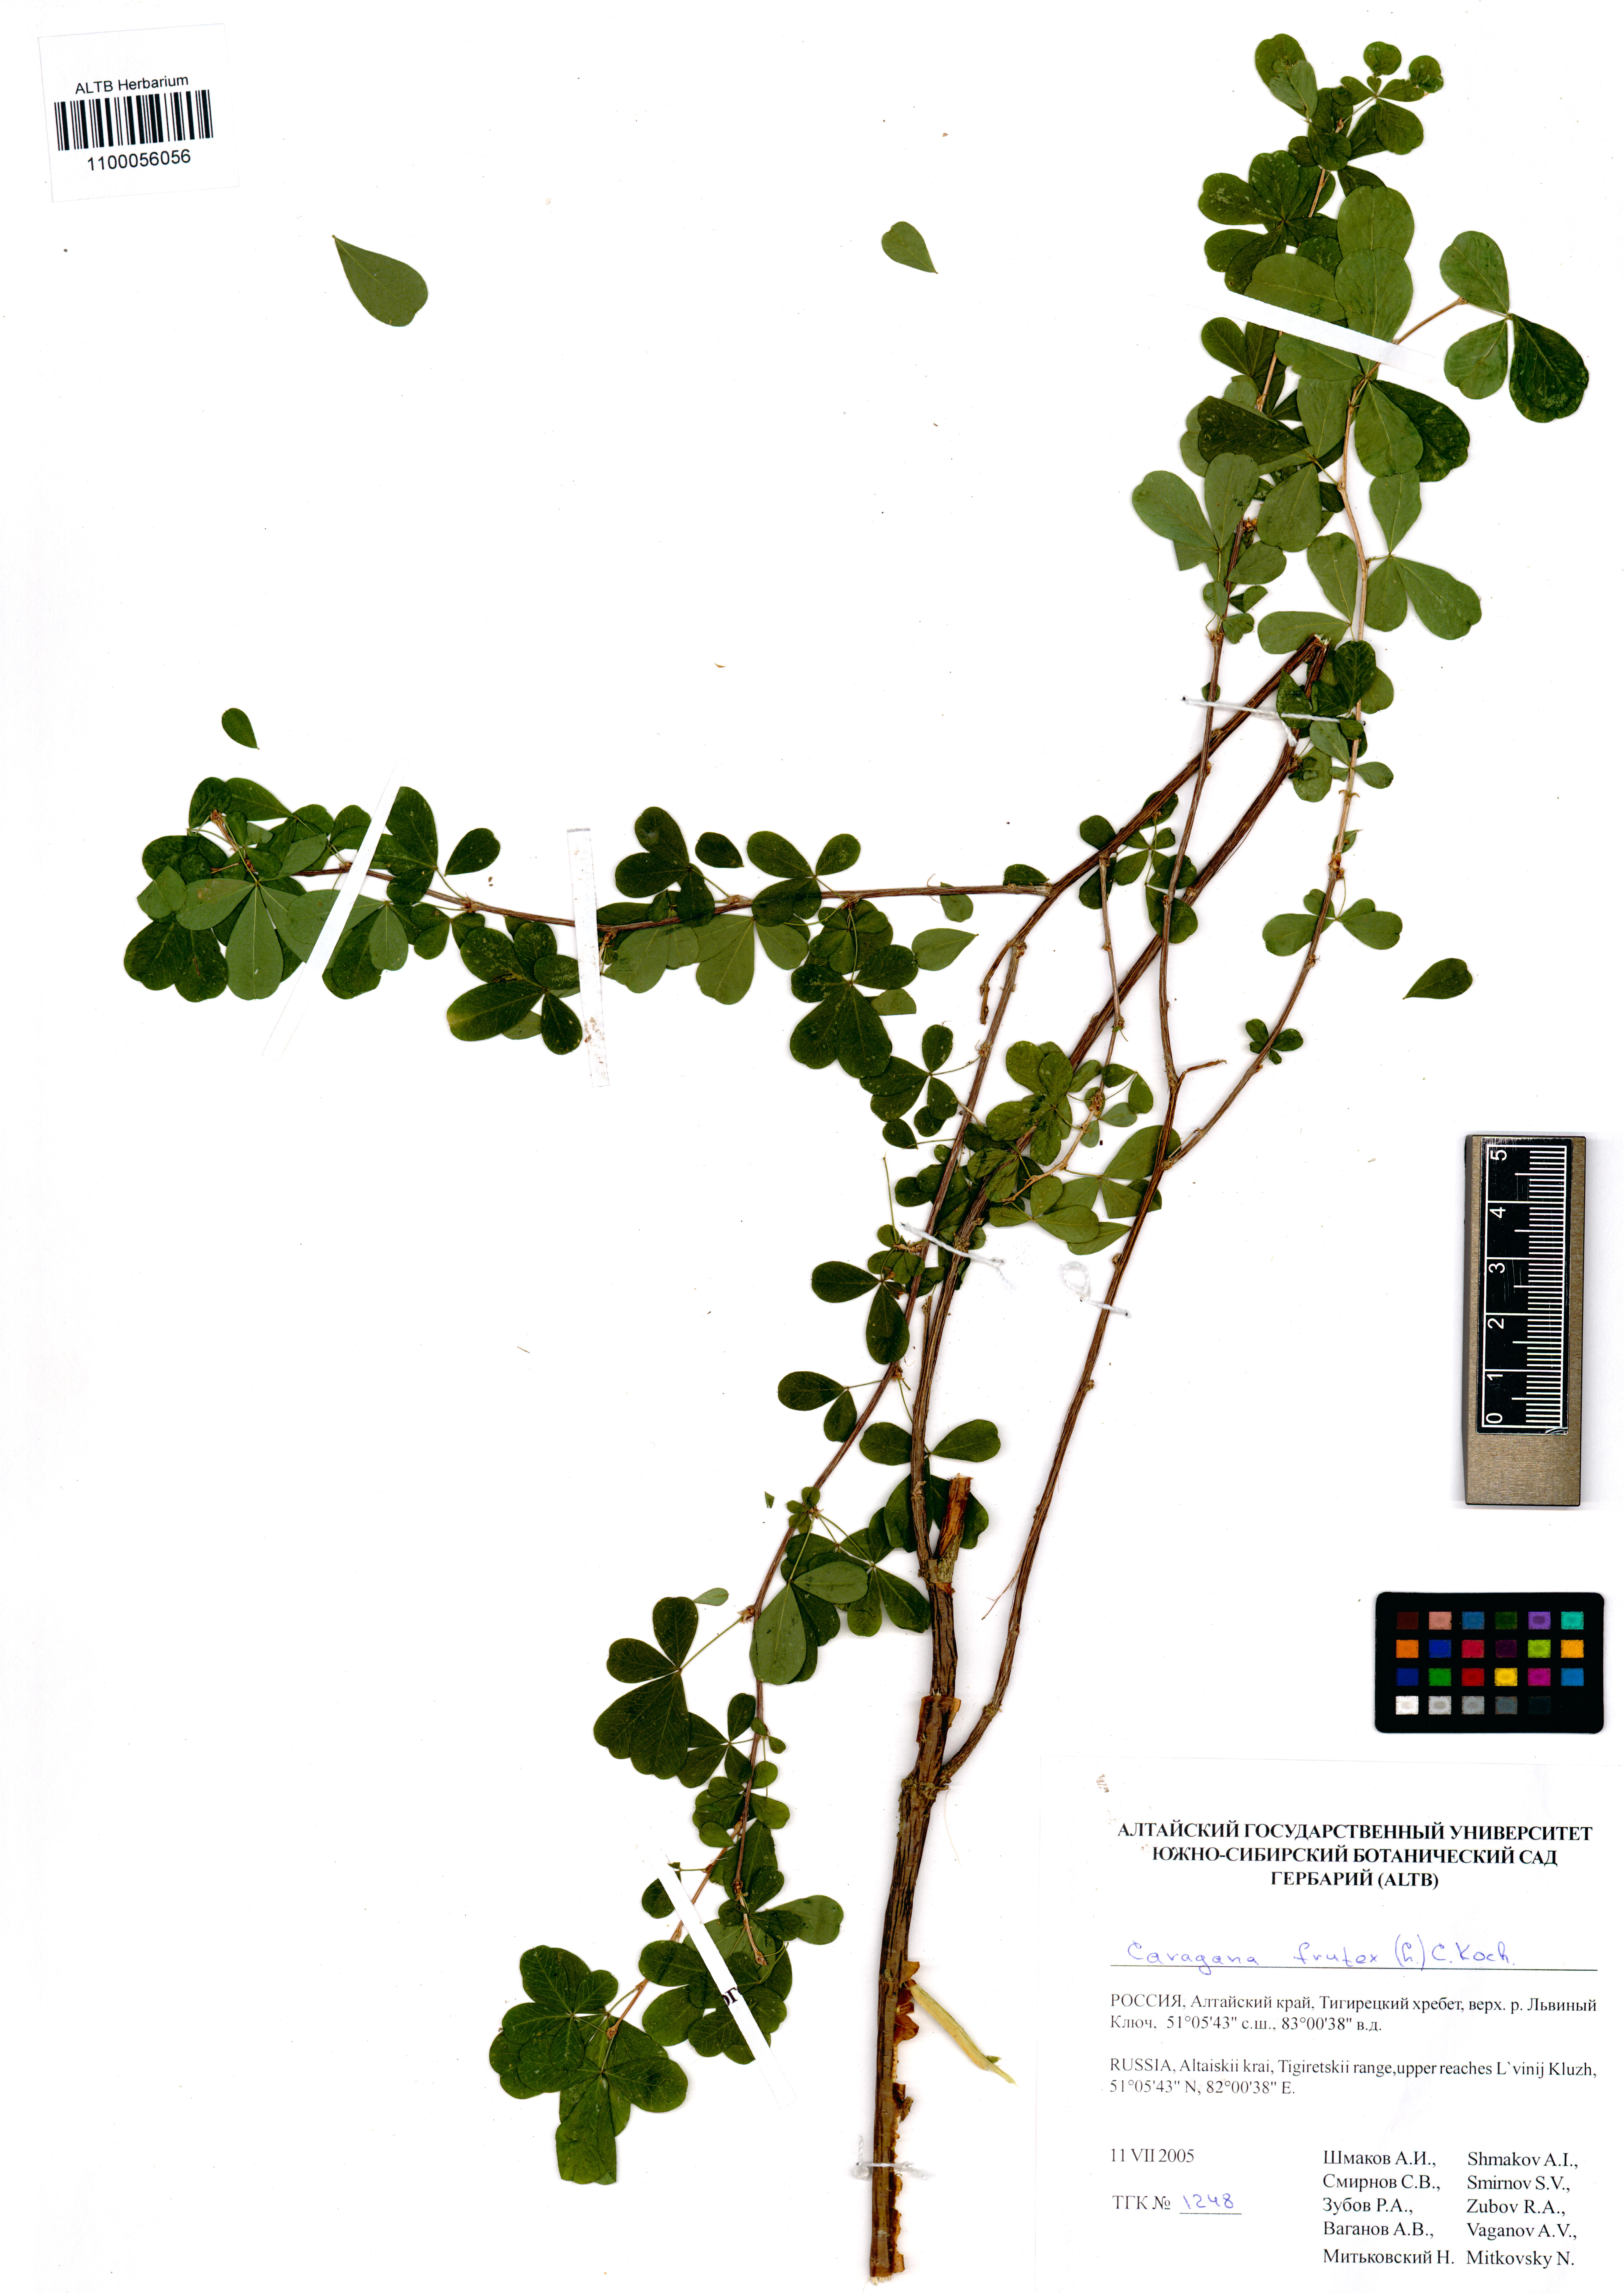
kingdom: Plantae
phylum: Tracheophyta
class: Magnoliopsida
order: Fabales
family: Fabaceae
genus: Caragana
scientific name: Caragana frutex
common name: Russian peashrub
